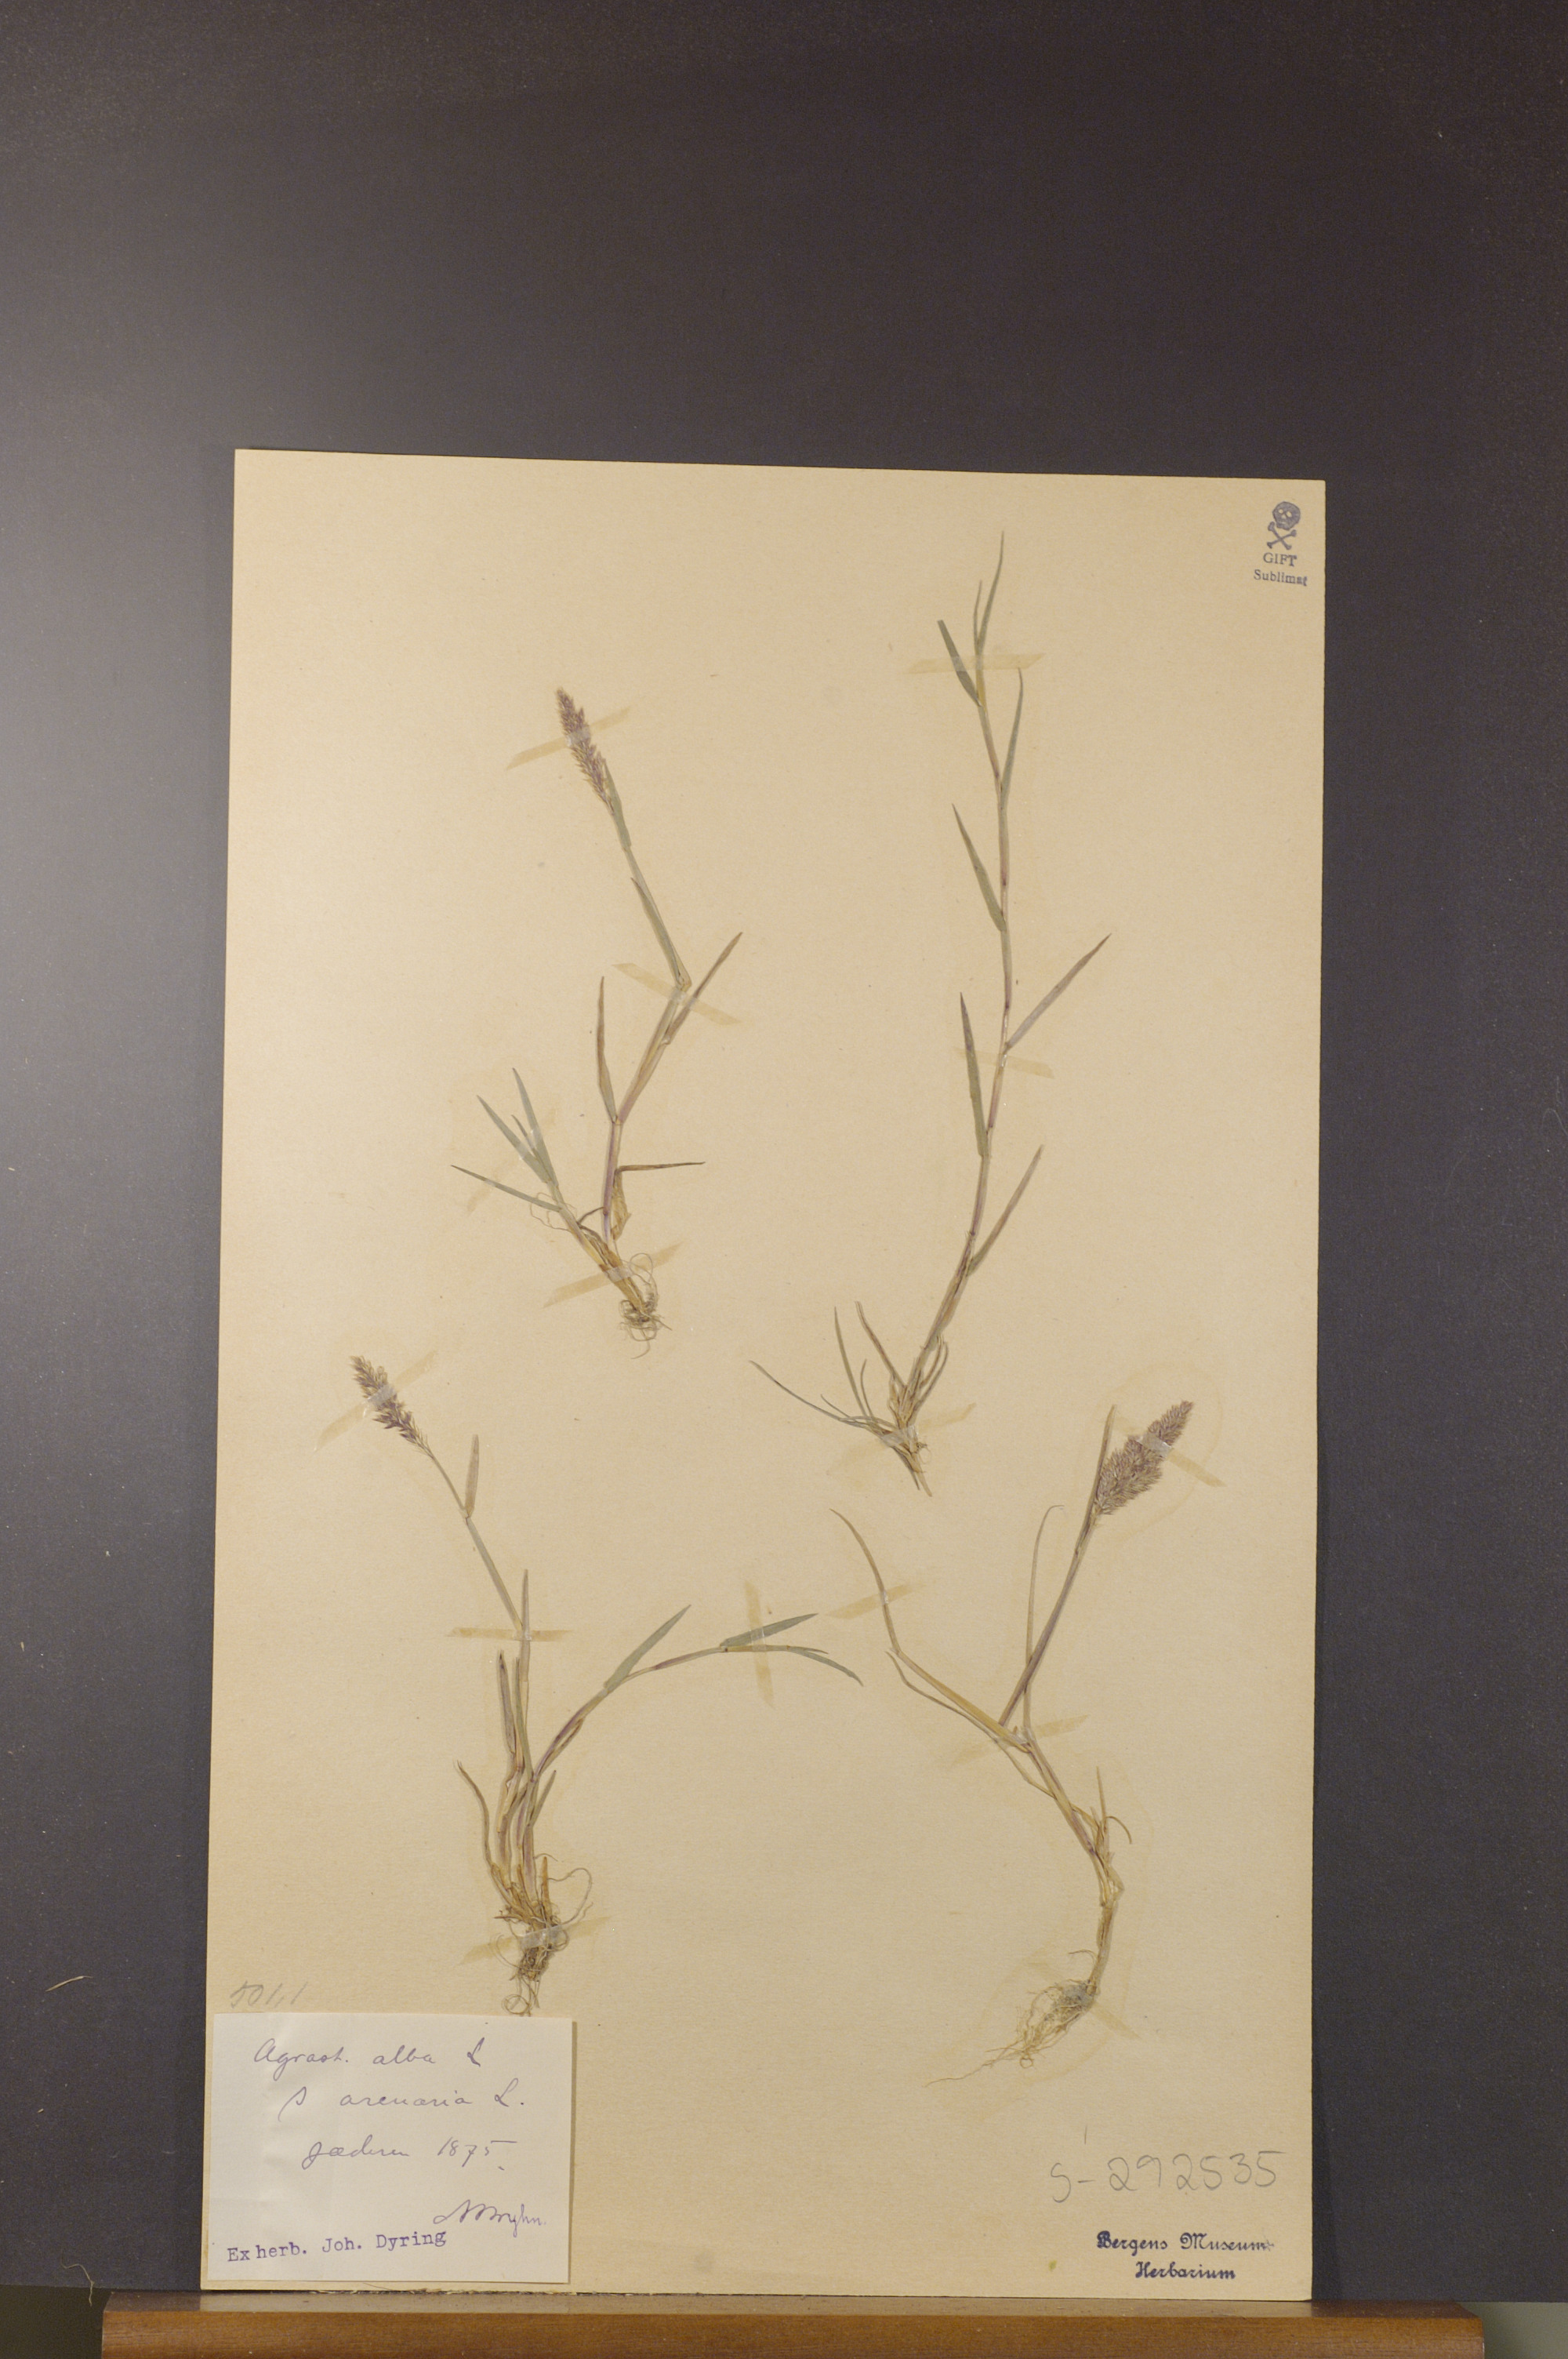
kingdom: Plantae
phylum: Tracheophyta
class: Liliopsida
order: Poales
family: Poaceae
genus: Agrostis
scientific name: Agrostis stolonifera
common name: Creeping bentgrass
